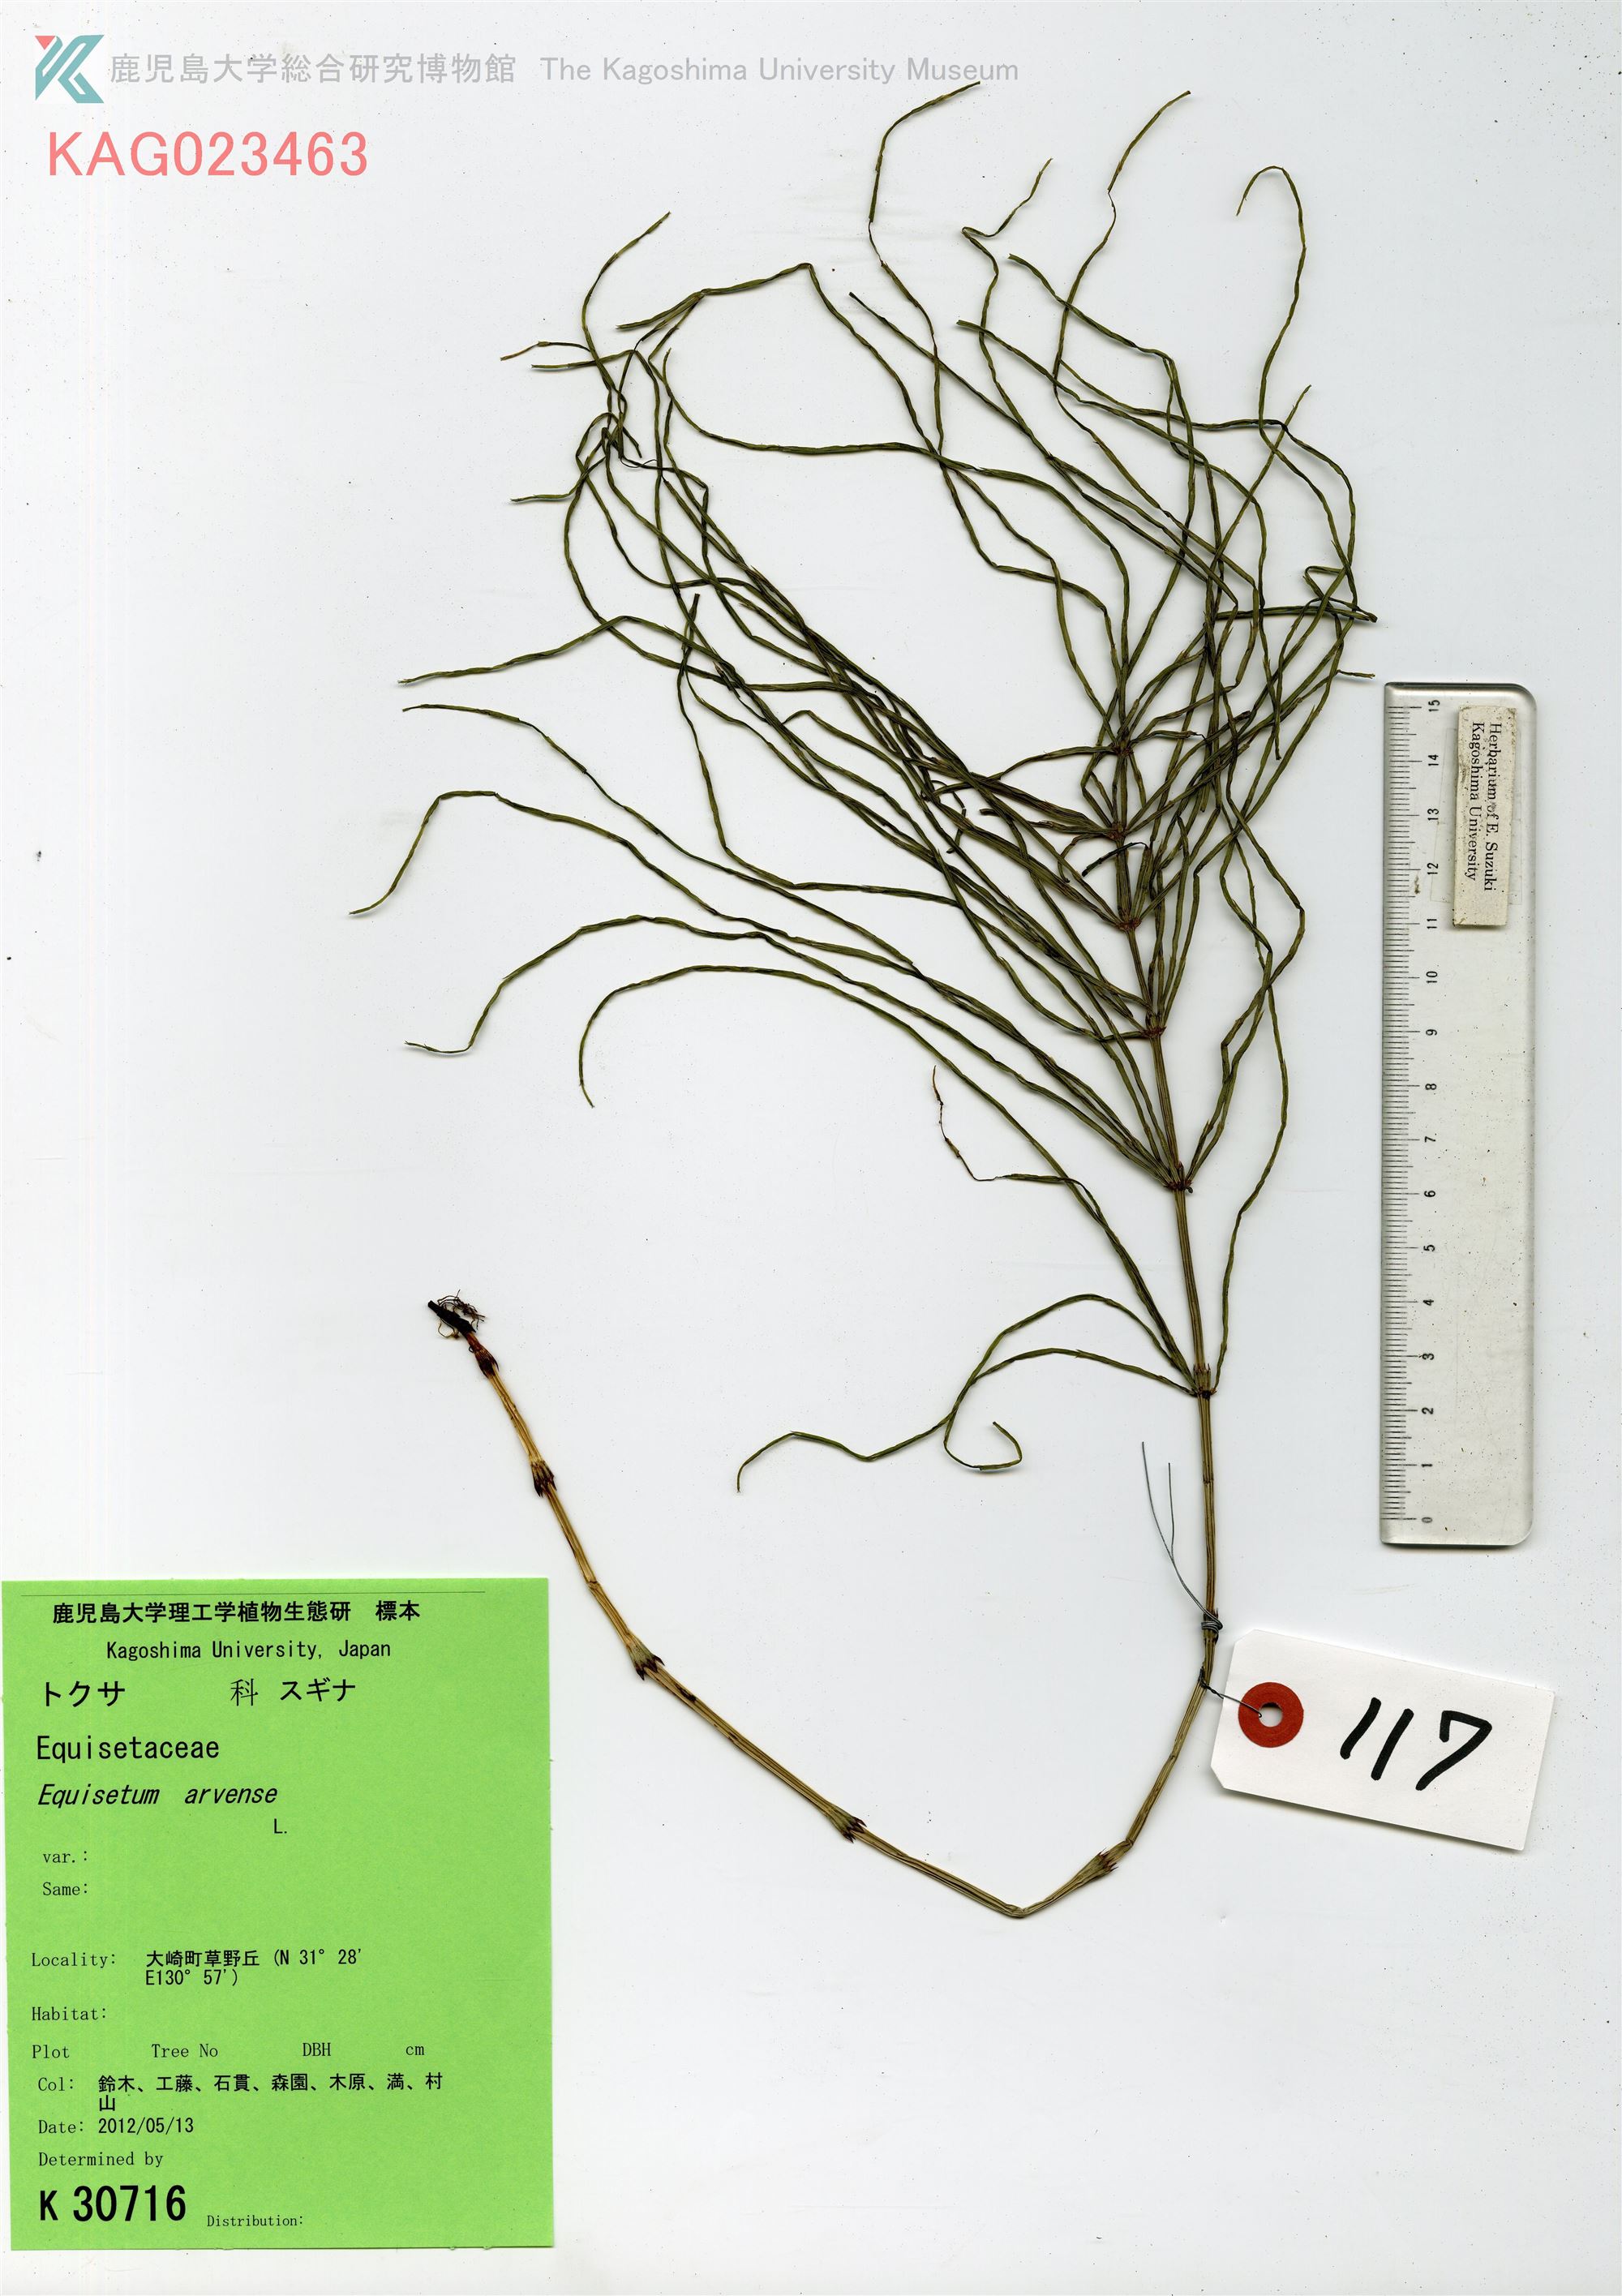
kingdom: Plantae
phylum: Tracheophyta
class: Polypodiopsida
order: Equisetales
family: Equisetaceae
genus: Equisetum
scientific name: Equisetum arvense
